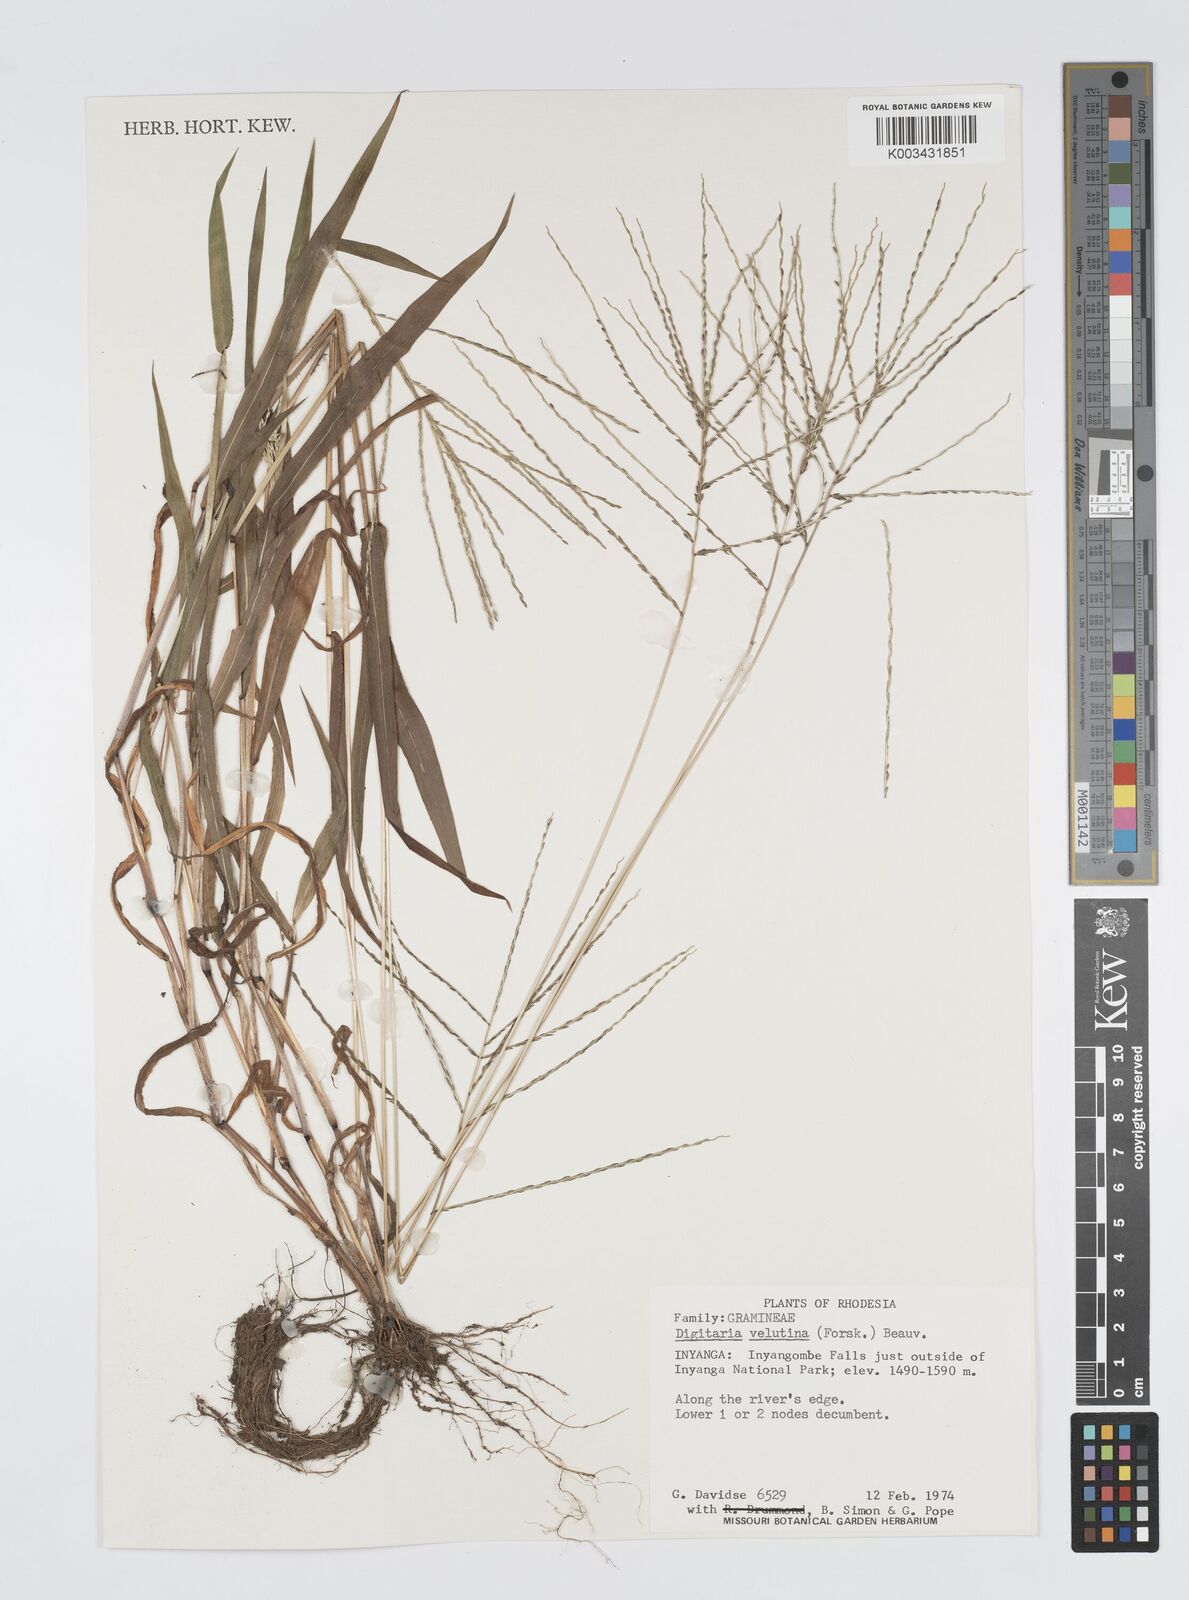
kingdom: Plantae
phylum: Tracheophyta
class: Liliopsida
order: Poales
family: Poaceae
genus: Digitaria
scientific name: Digitaria velutina
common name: Long-plume finger grass
